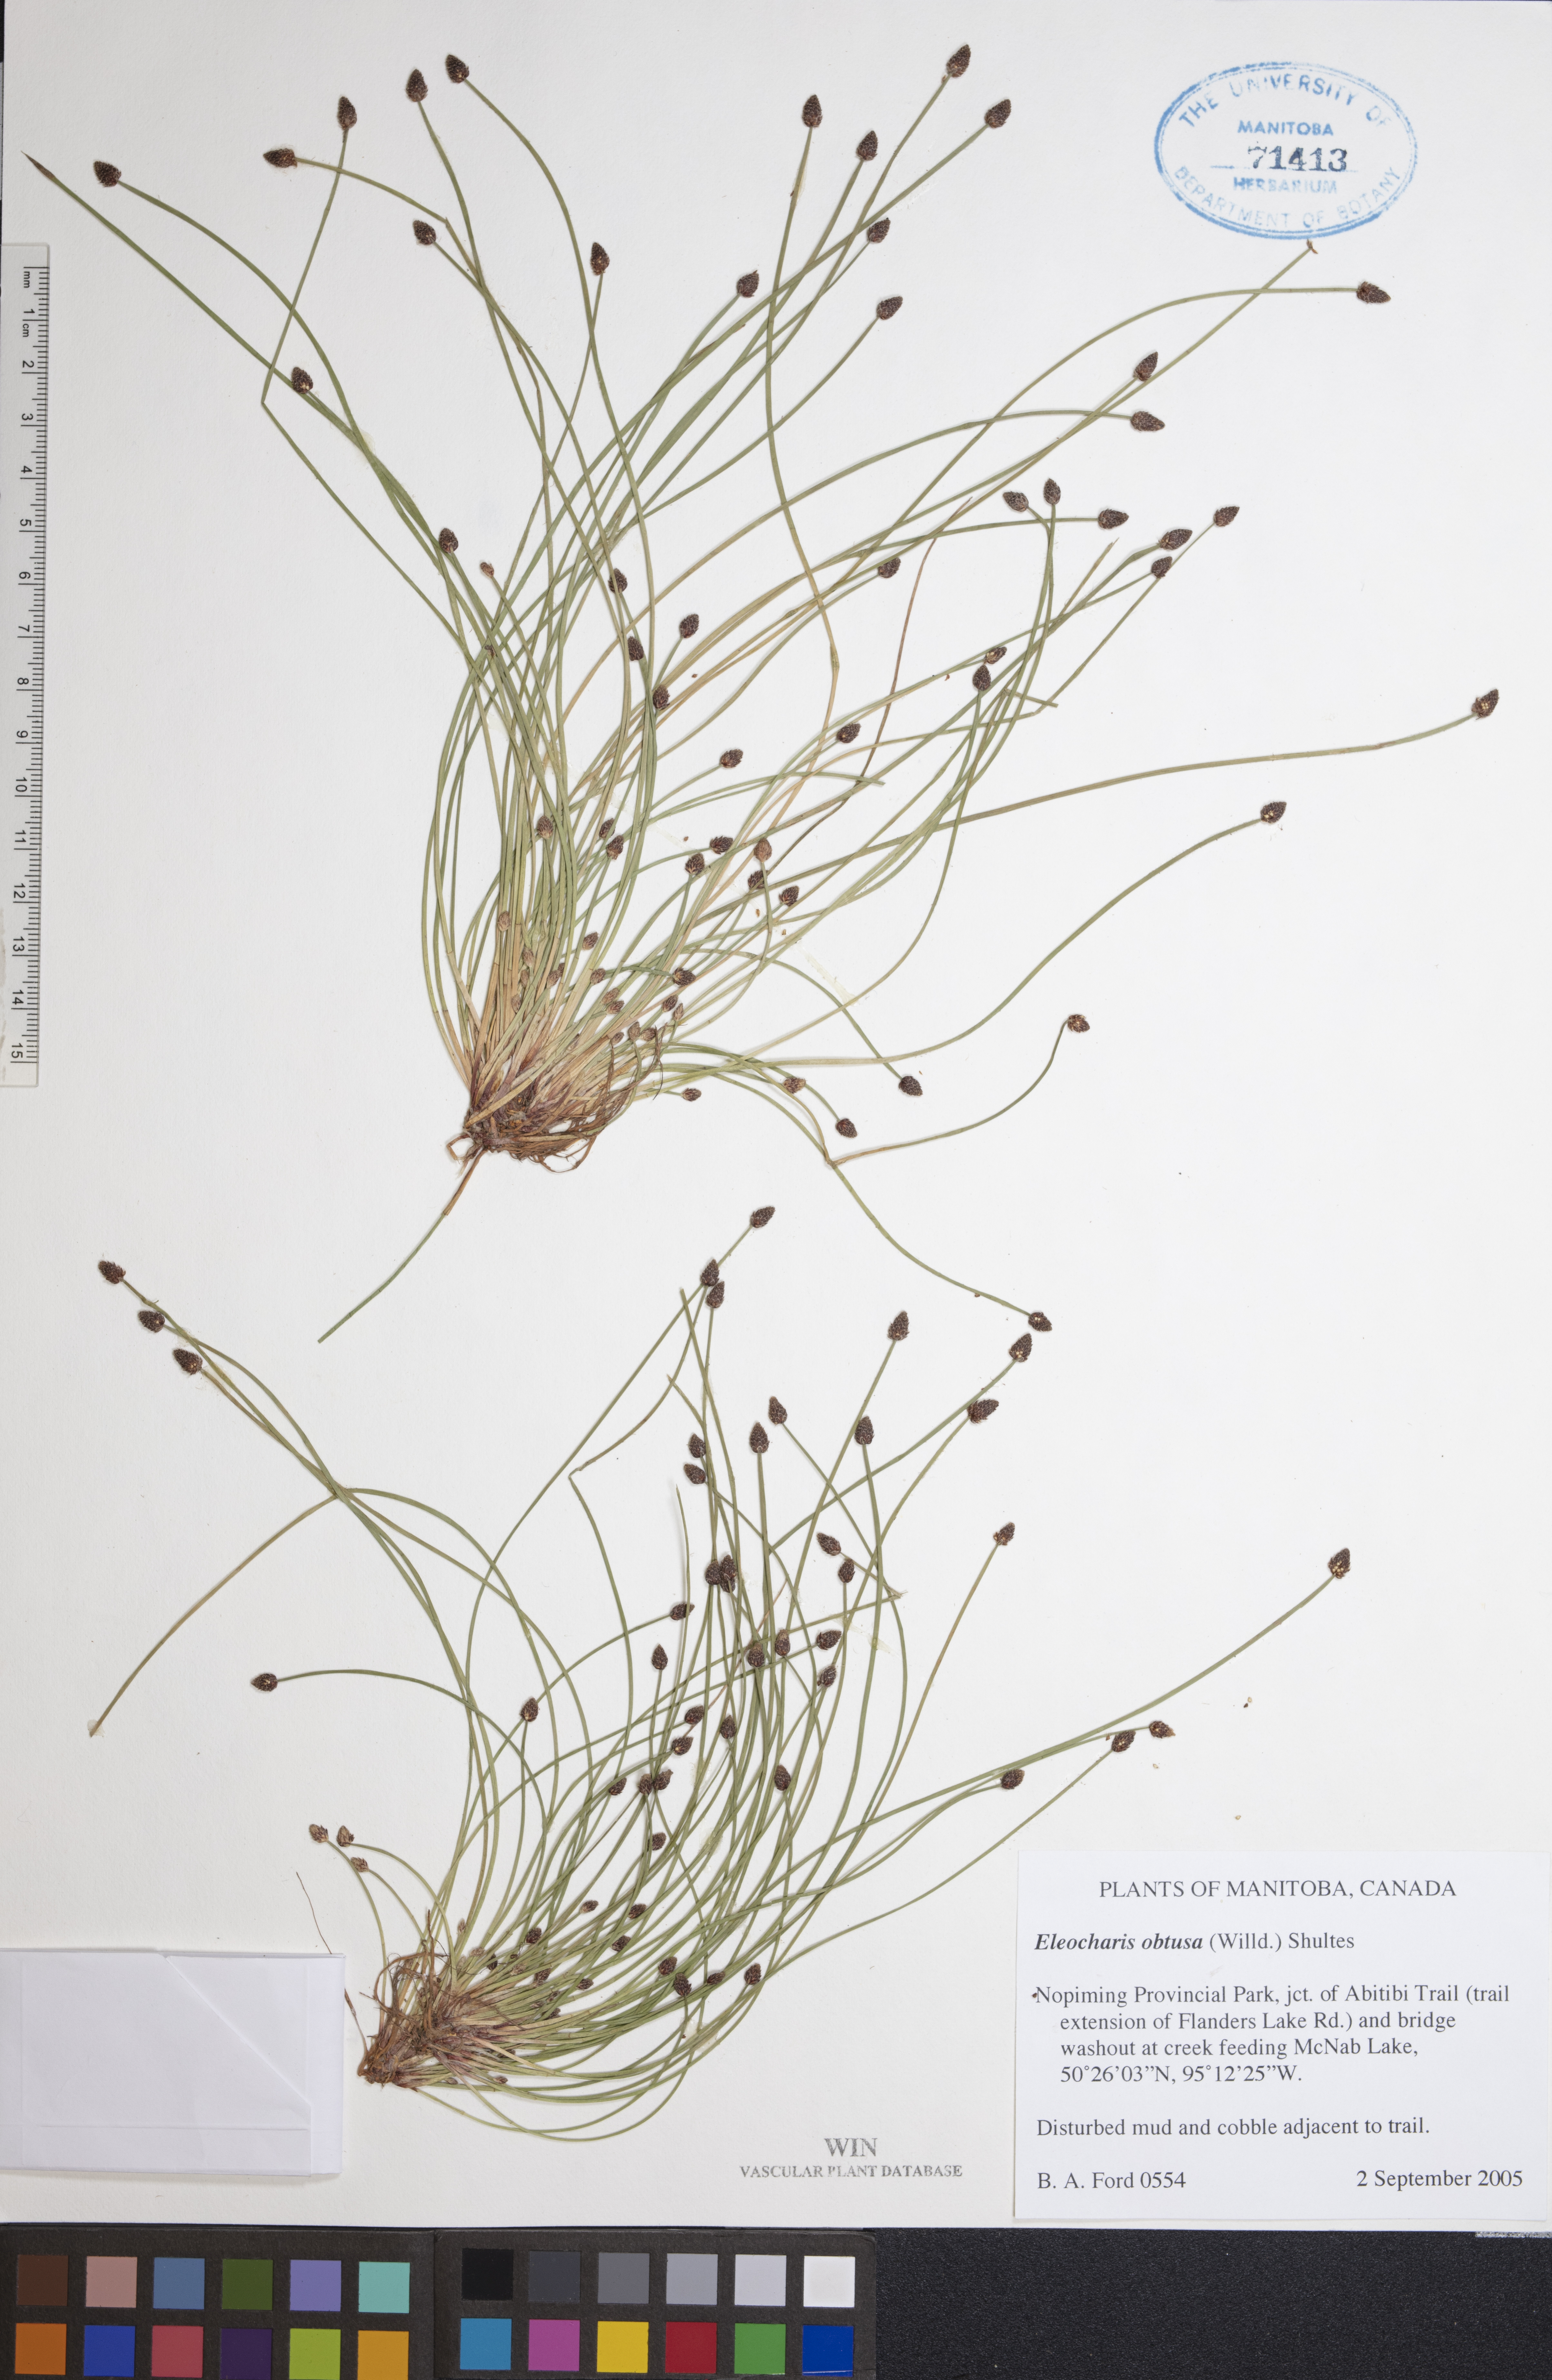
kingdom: Plantae
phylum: Tracheophyta
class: Liliopsida
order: Poales
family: Cyperaceae
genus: Eleocharis
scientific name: Eleocharis obtusa
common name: Blunt spikerush
